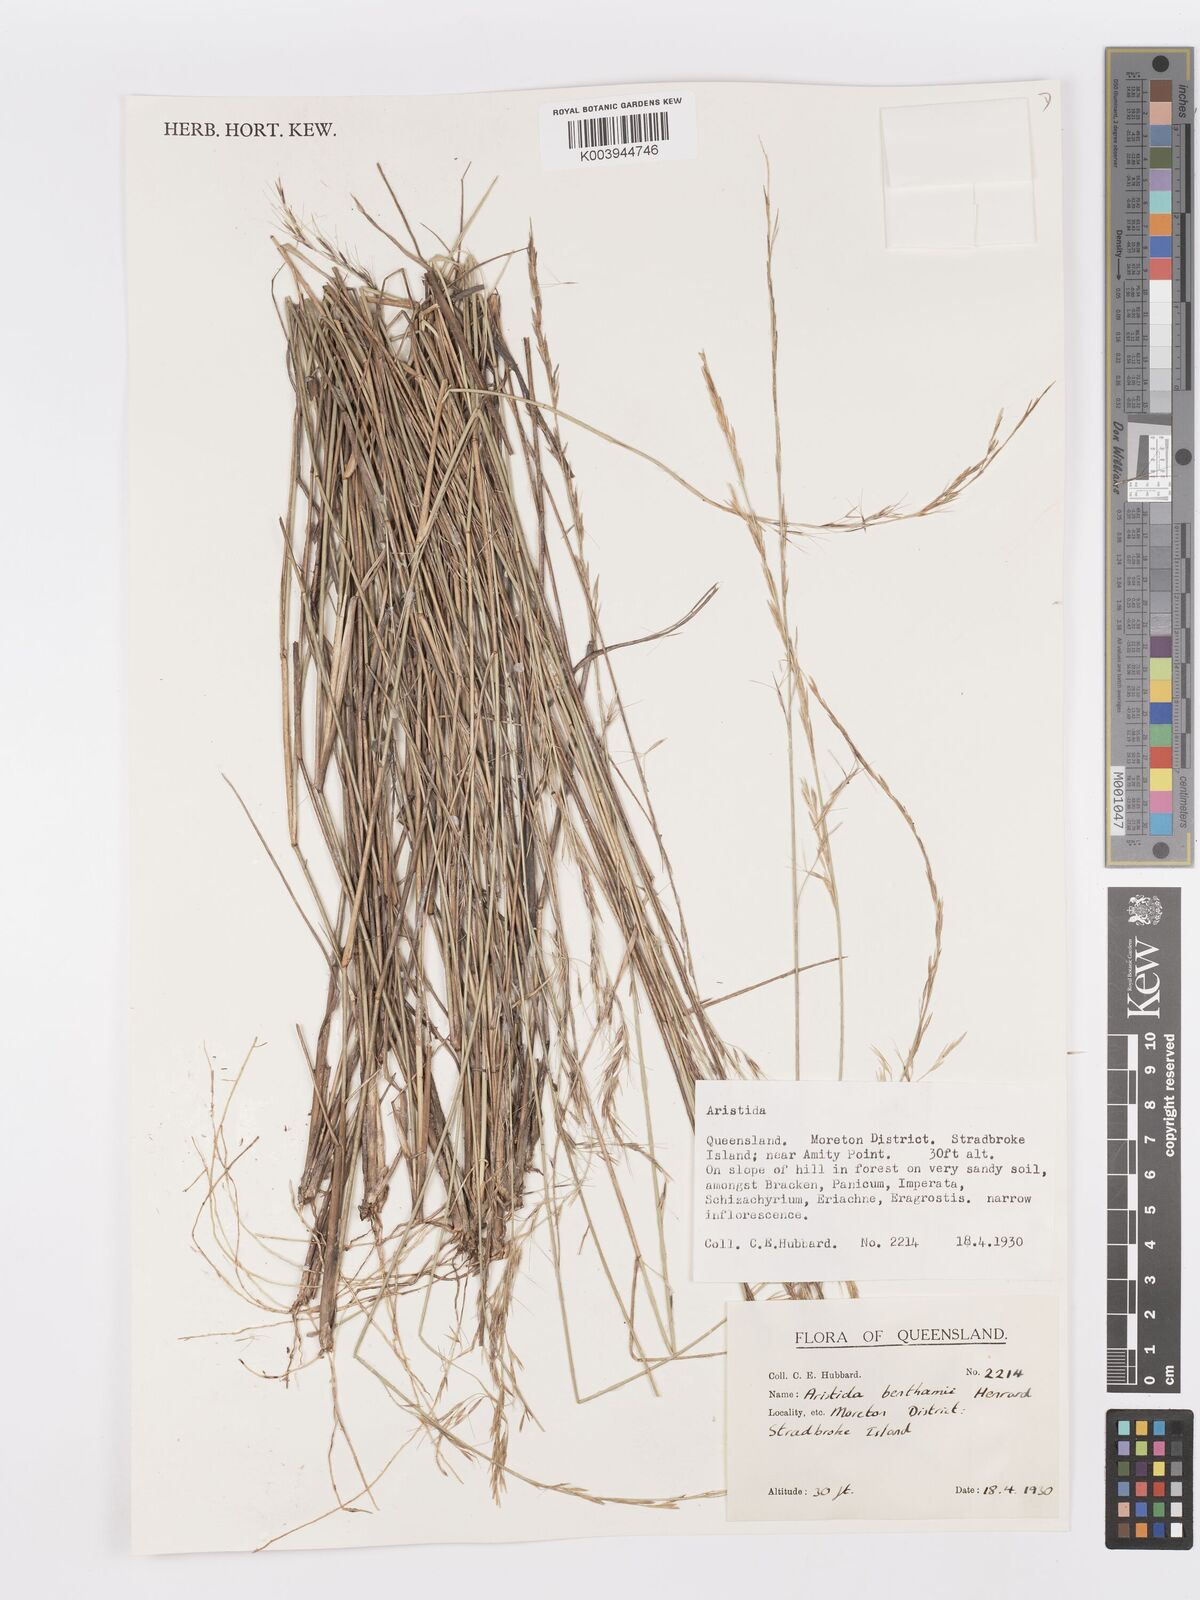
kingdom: Plantae
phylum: Tracheophyta
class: Liliopsida
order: Poales
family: Poaceae
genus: Aristida
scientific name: Aristida benthamii
